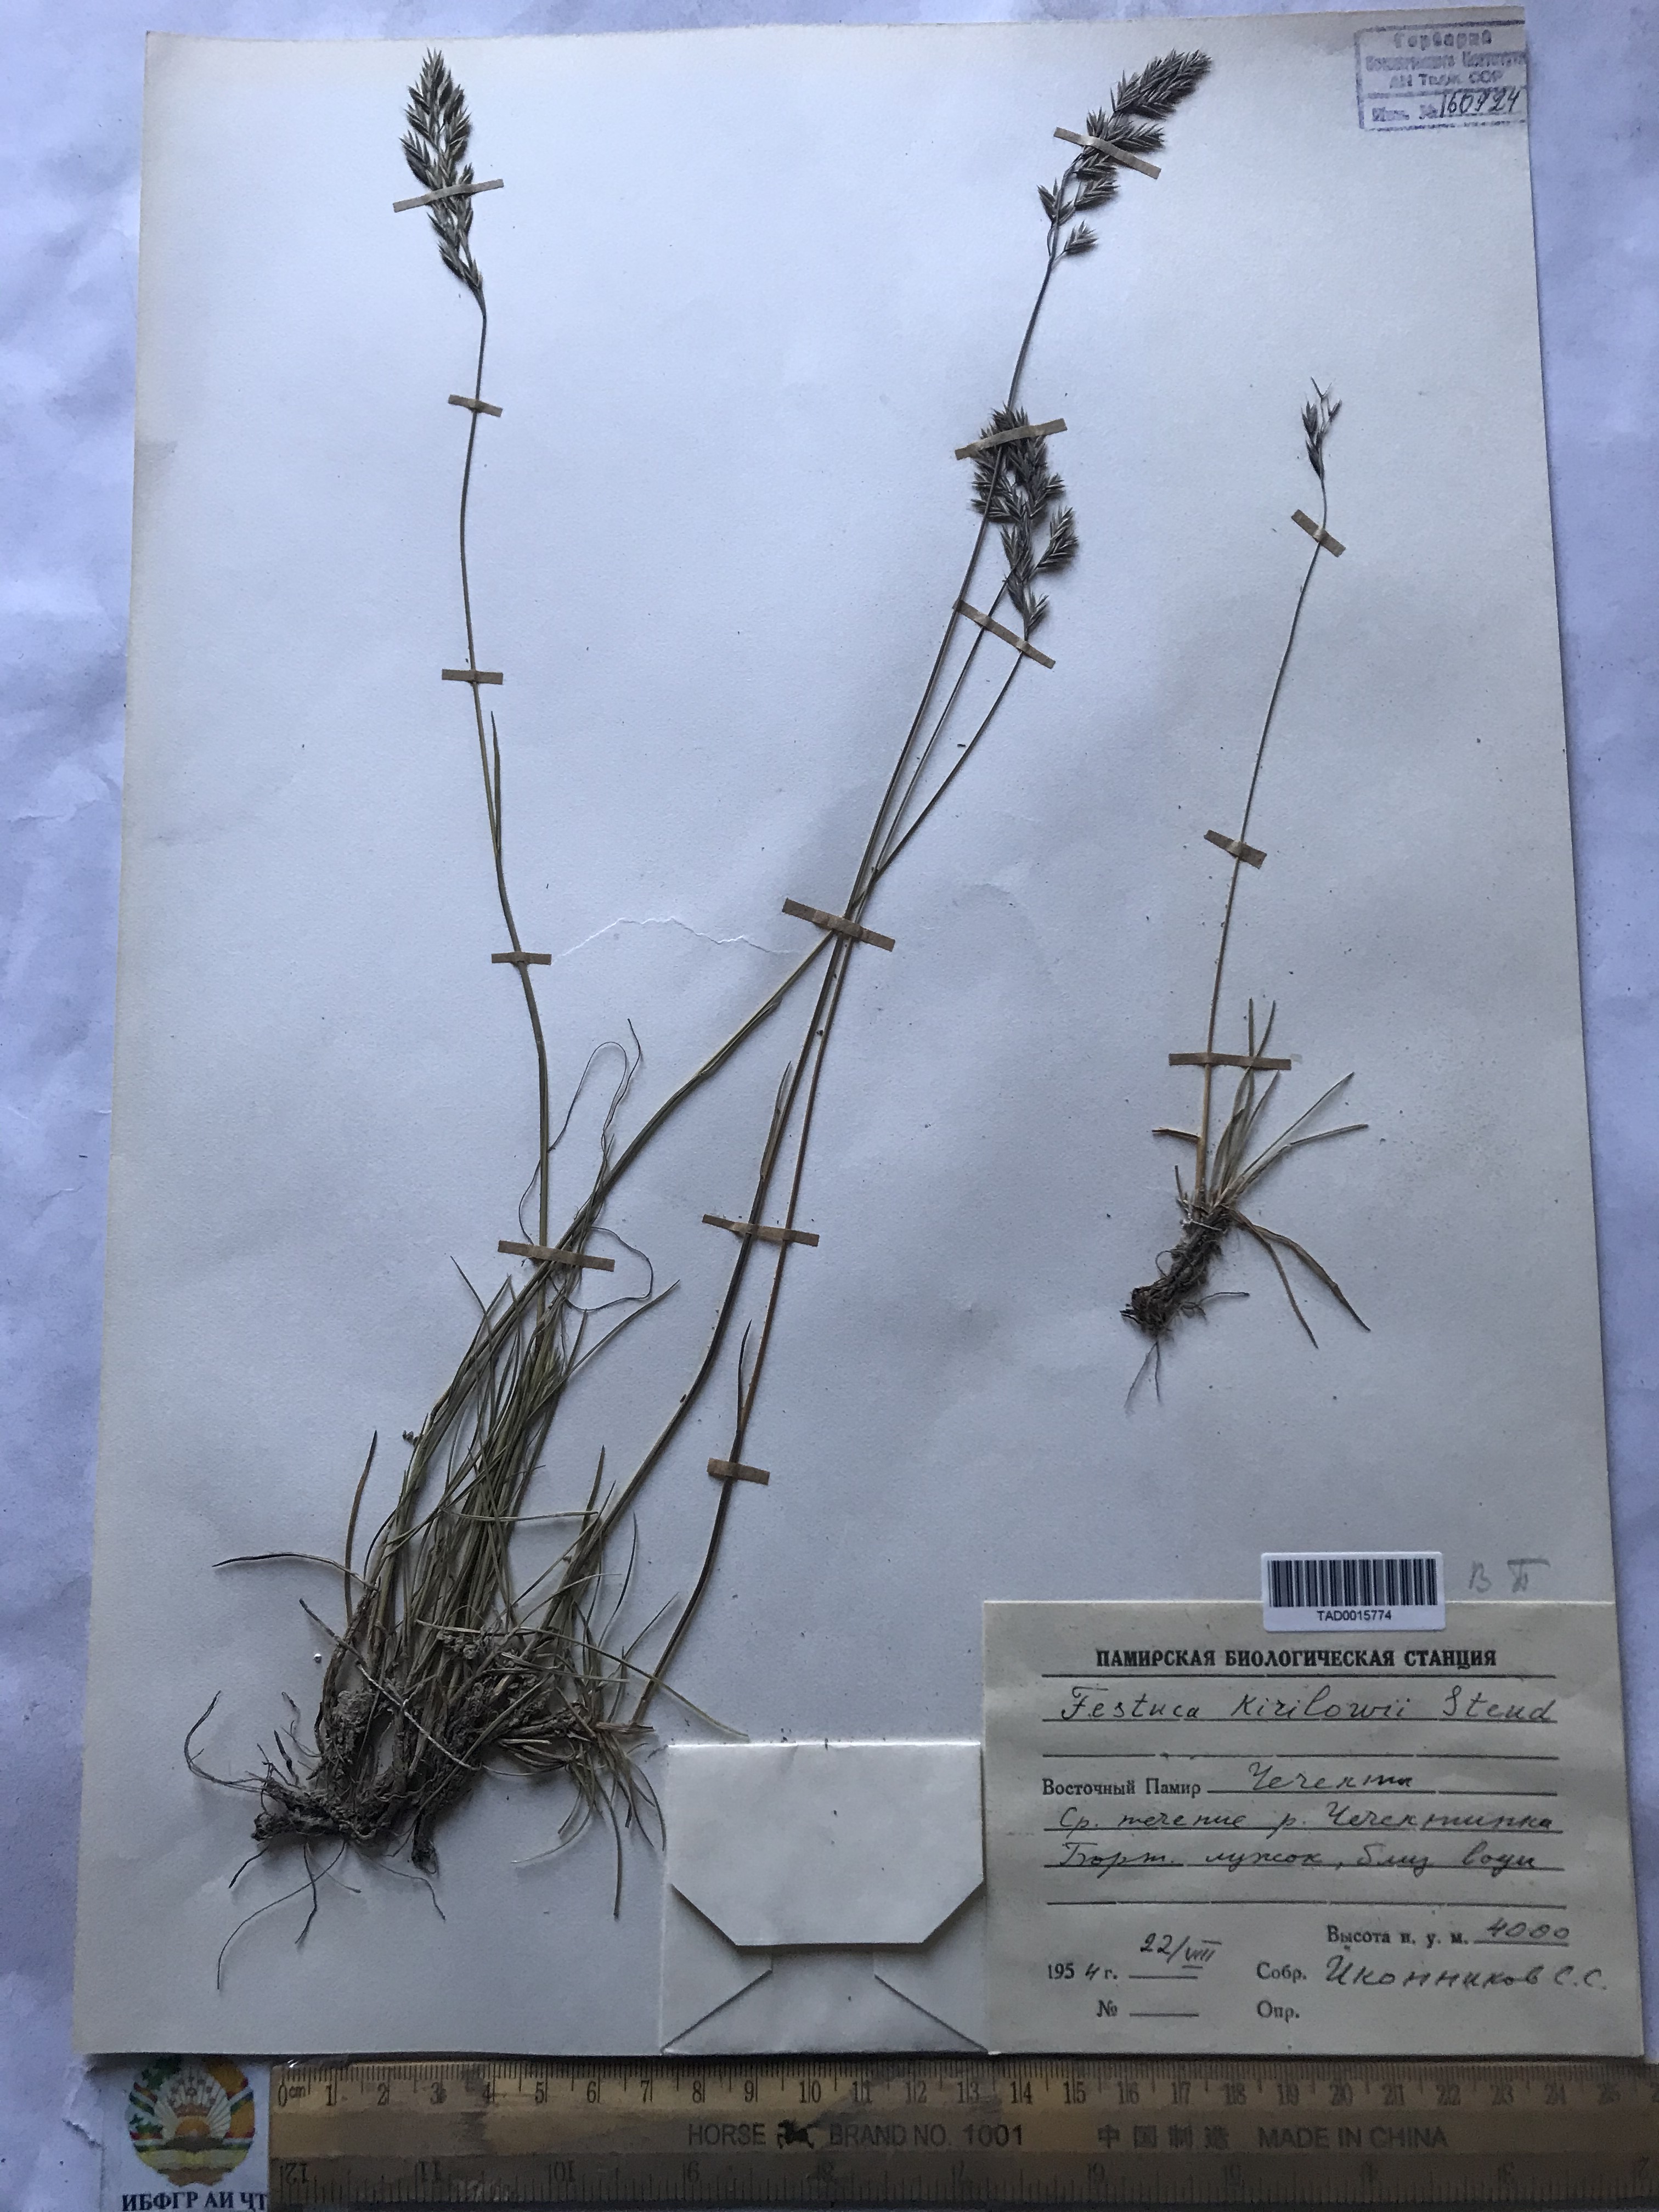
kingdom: Plantae
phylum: Tracheophyta
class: Liliopsida
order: Poales
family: Poaceae
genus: Festuca
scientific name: Festuca rubra
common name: Red fescue
